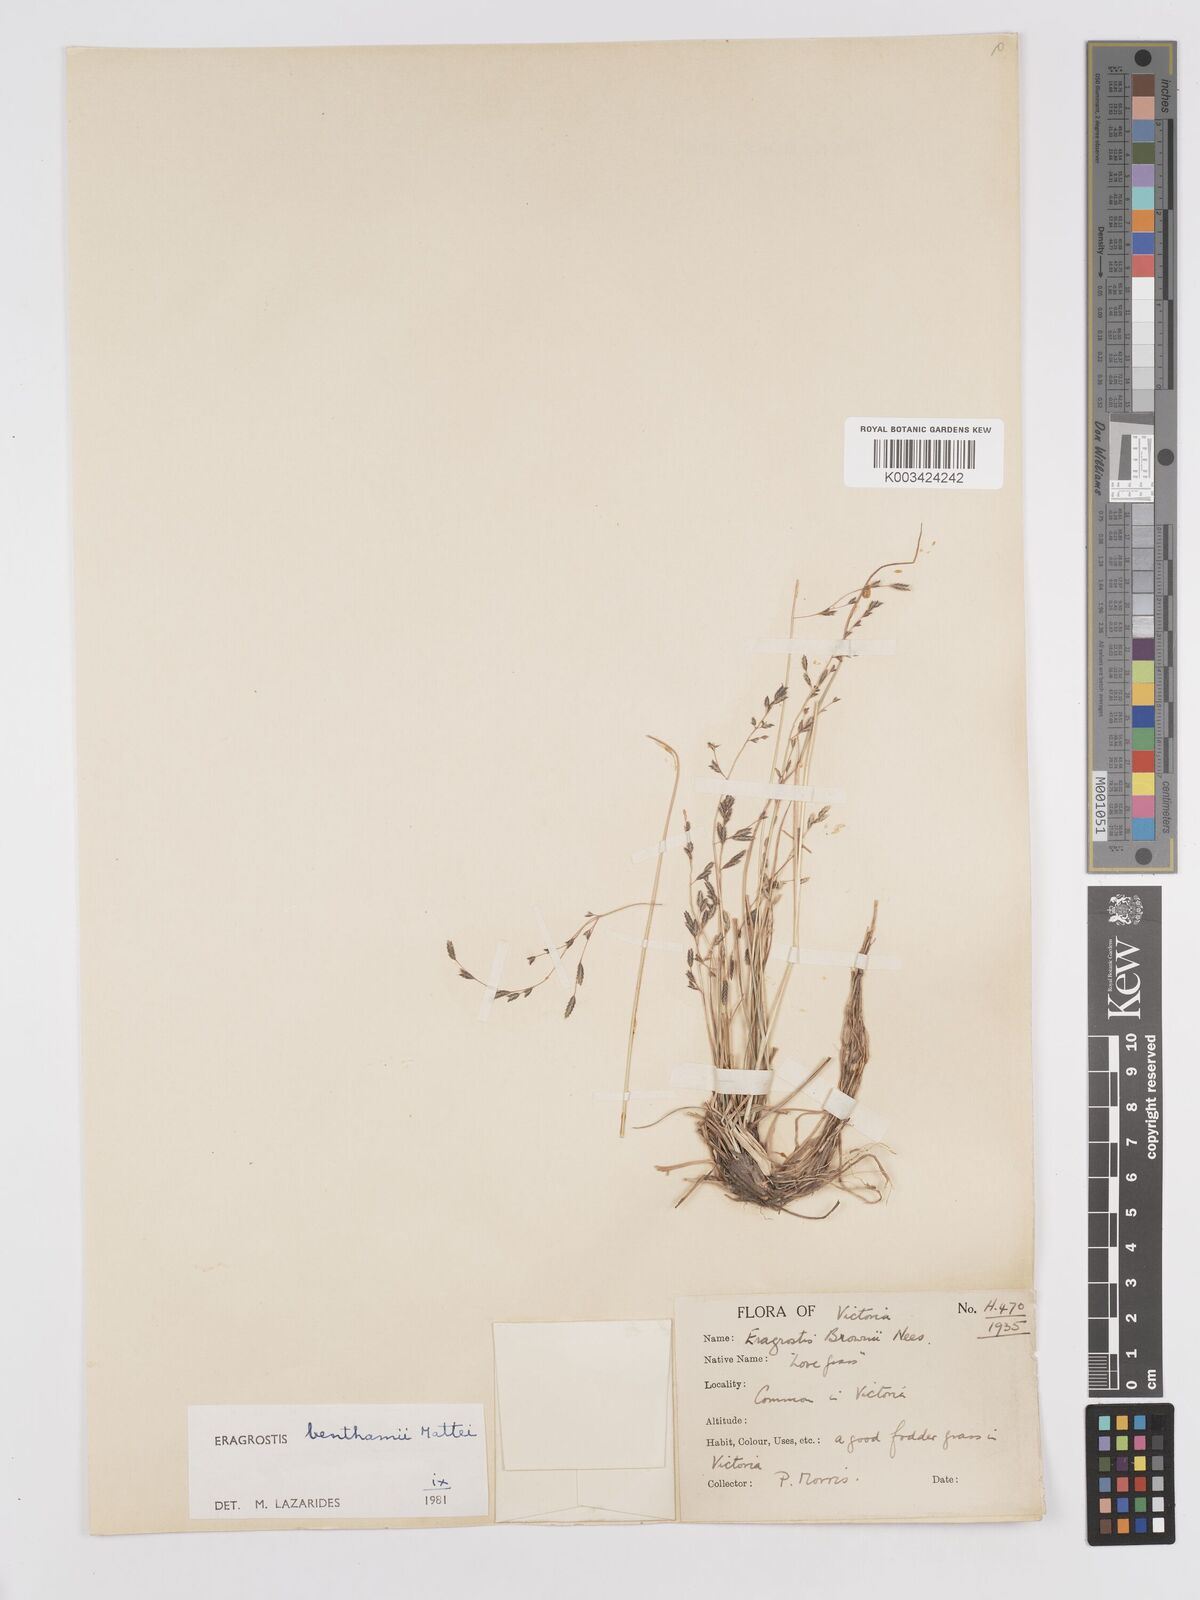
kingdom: Plantae
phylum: Tracheophyta
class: Liliopsida
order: Poales
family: Poaceae
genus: Eragrostis
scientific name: Eragrostis brownii
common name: Lovegrass
